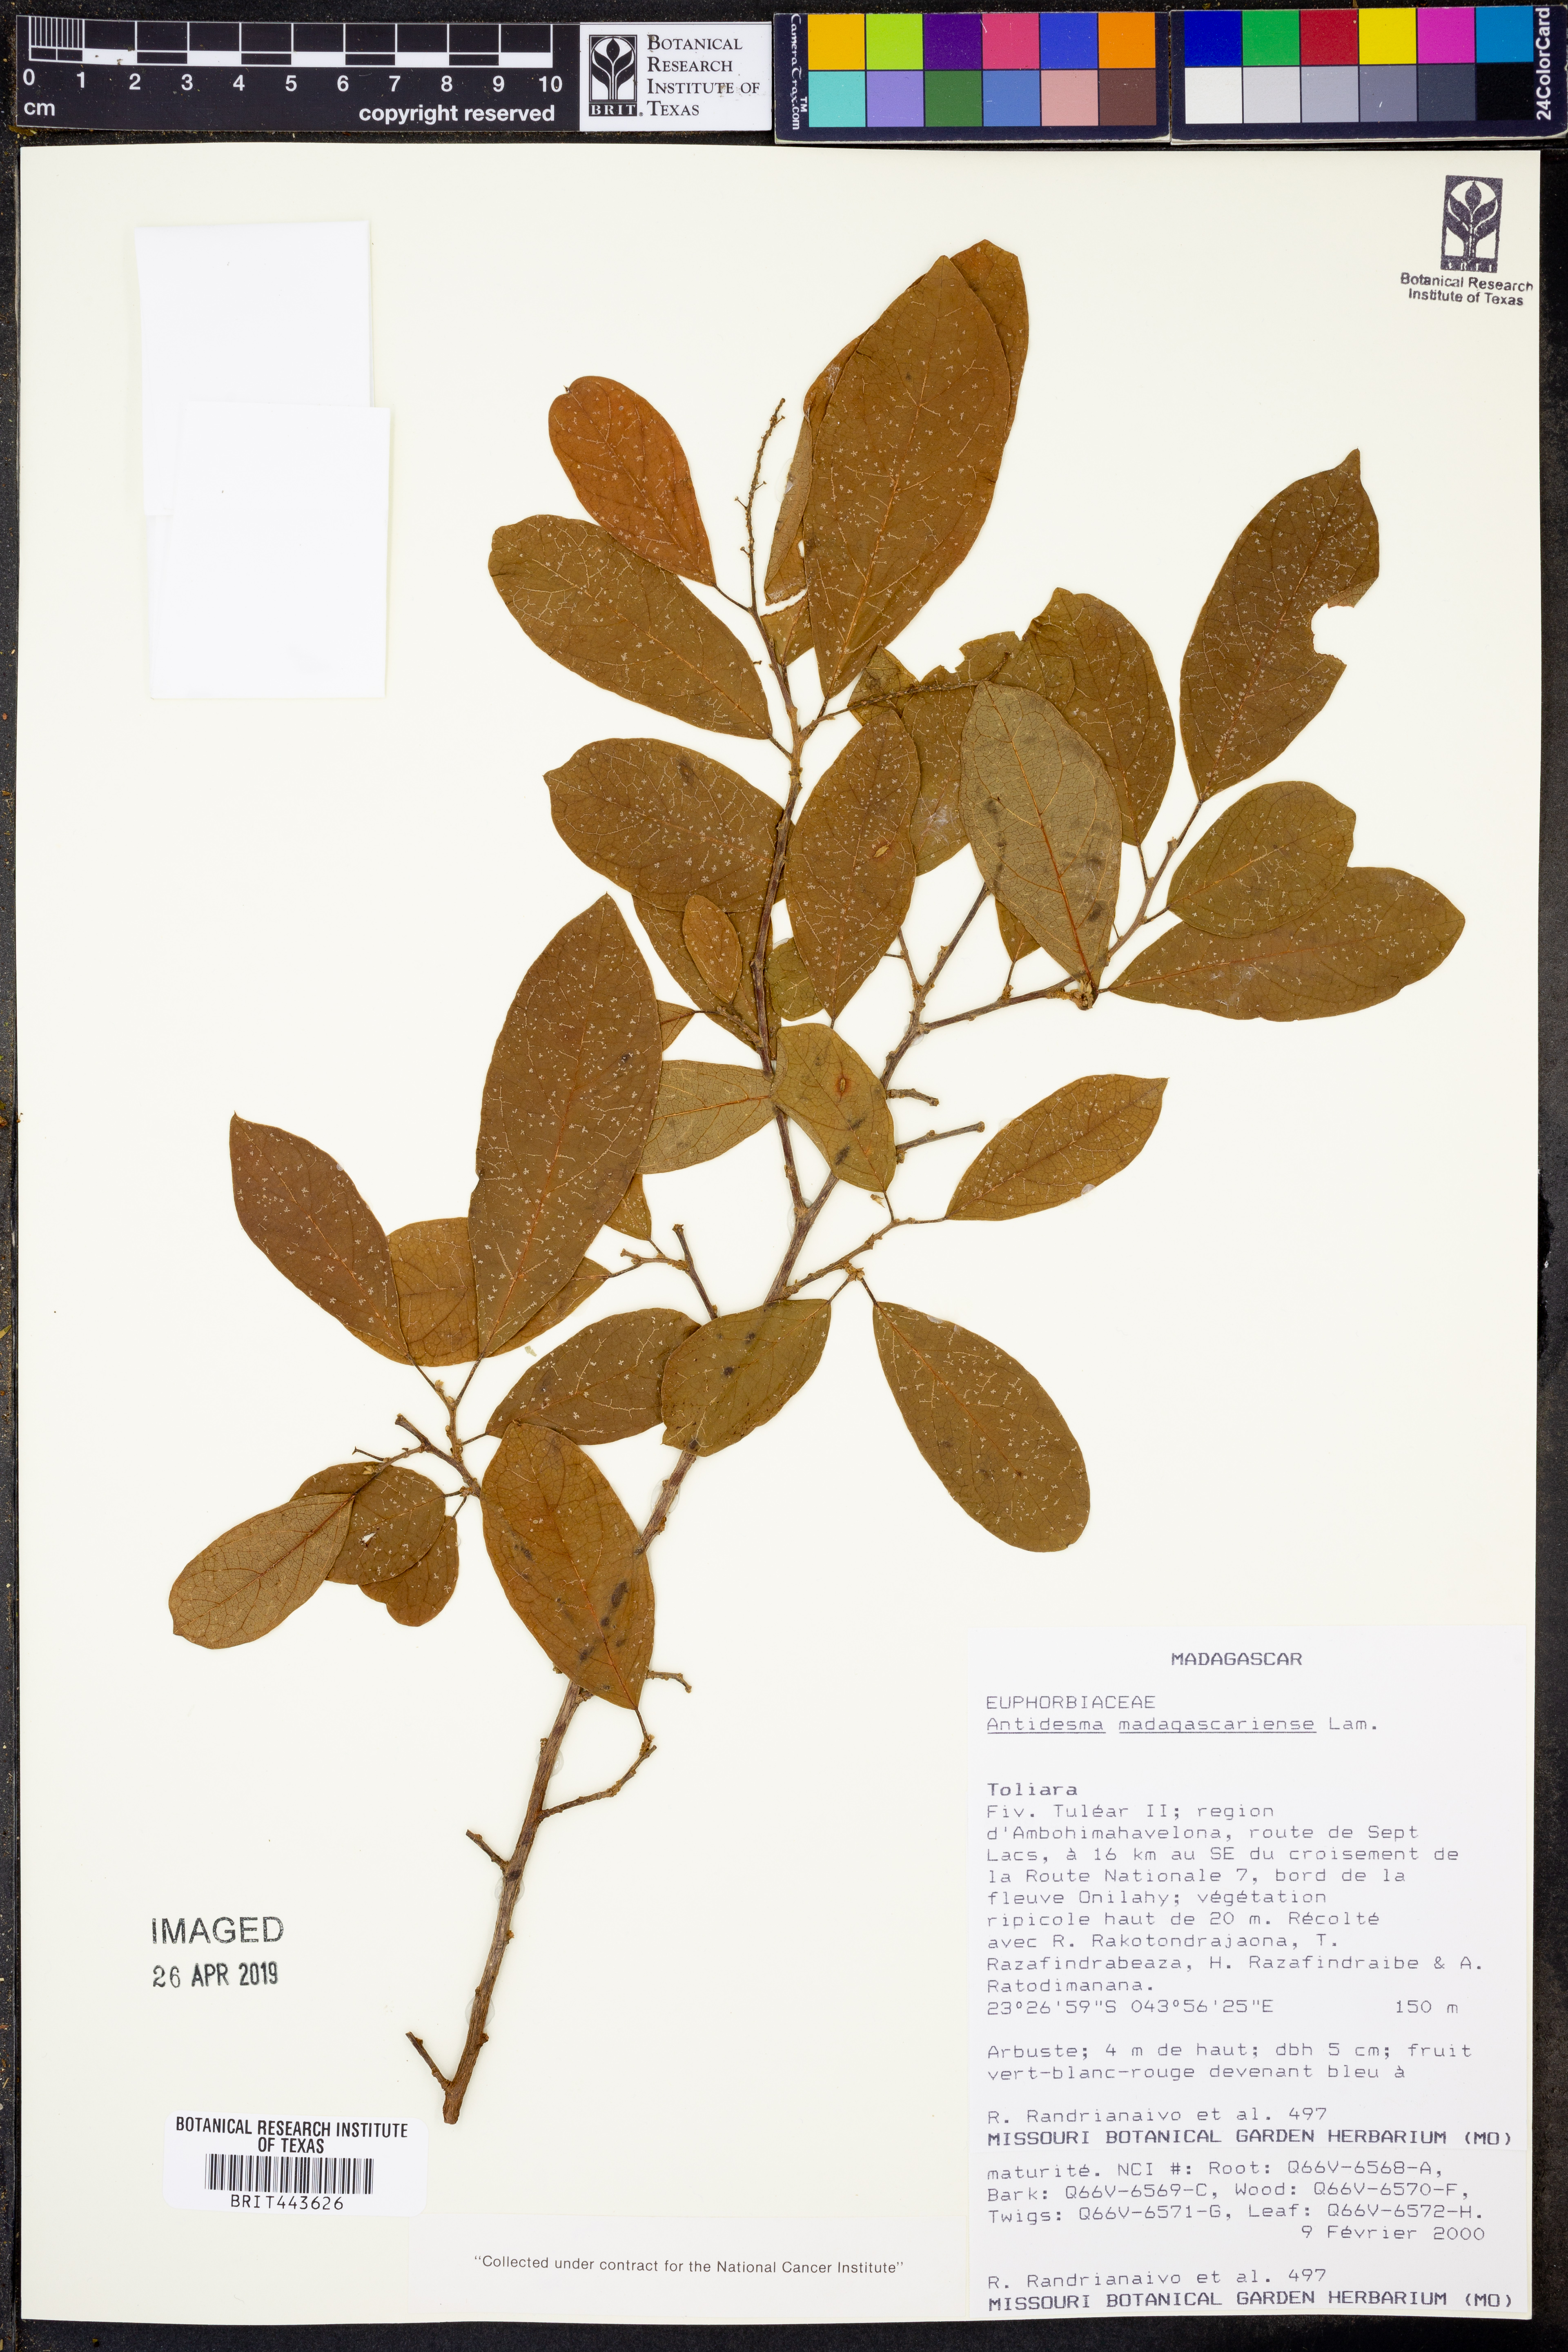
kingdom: Plantae
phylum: Tracheophyta
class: Magnoliopsida
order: Malpighiales
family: Phyllanthaceae
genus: Antidesma
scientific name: Antidesma madagascariense
